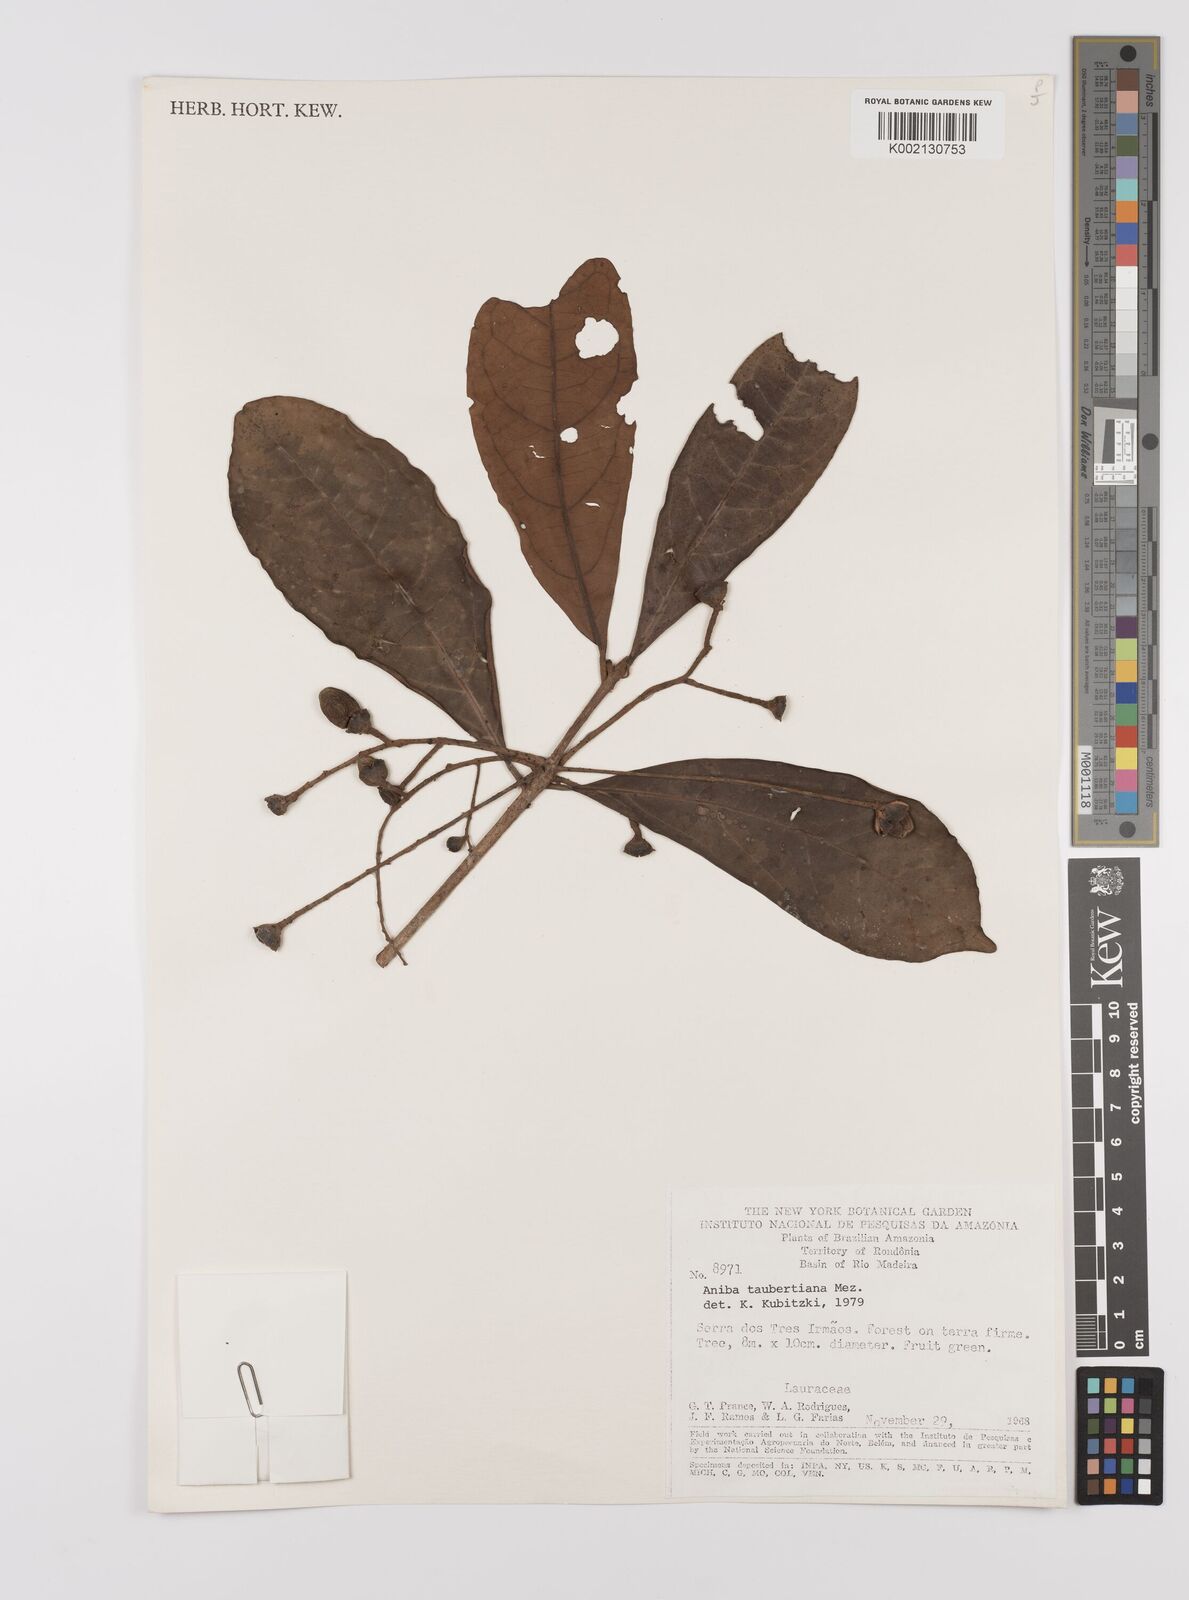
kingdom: Plantae
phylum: Tracheophyta
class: Magnoliopsida
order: Laurales
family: Lauraceae
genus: Aniba
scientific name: Aniba taubertiana
